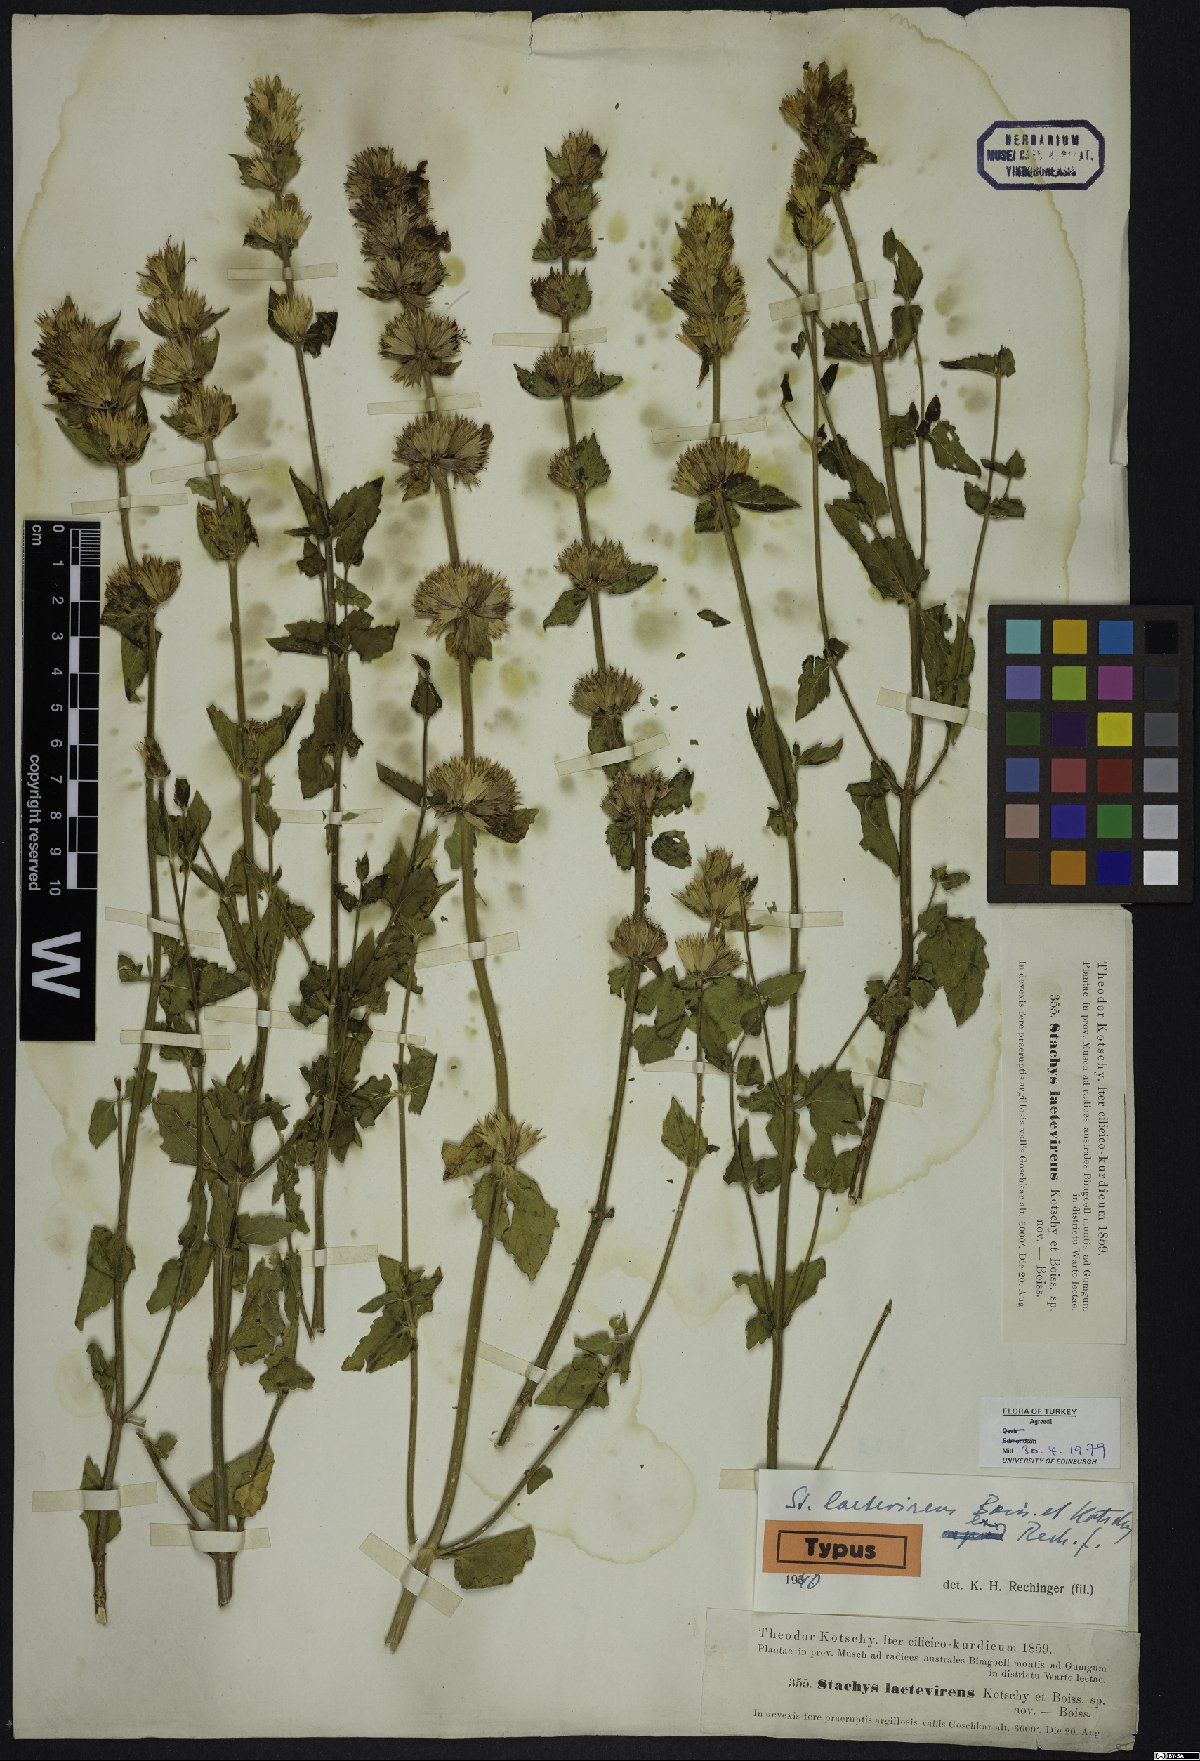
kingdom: Plantae
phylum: Tracheophyta
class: Magnoliopsida
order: Lamiales
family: Lamiaceae
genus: Stachys
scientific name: Stachys viscosa
